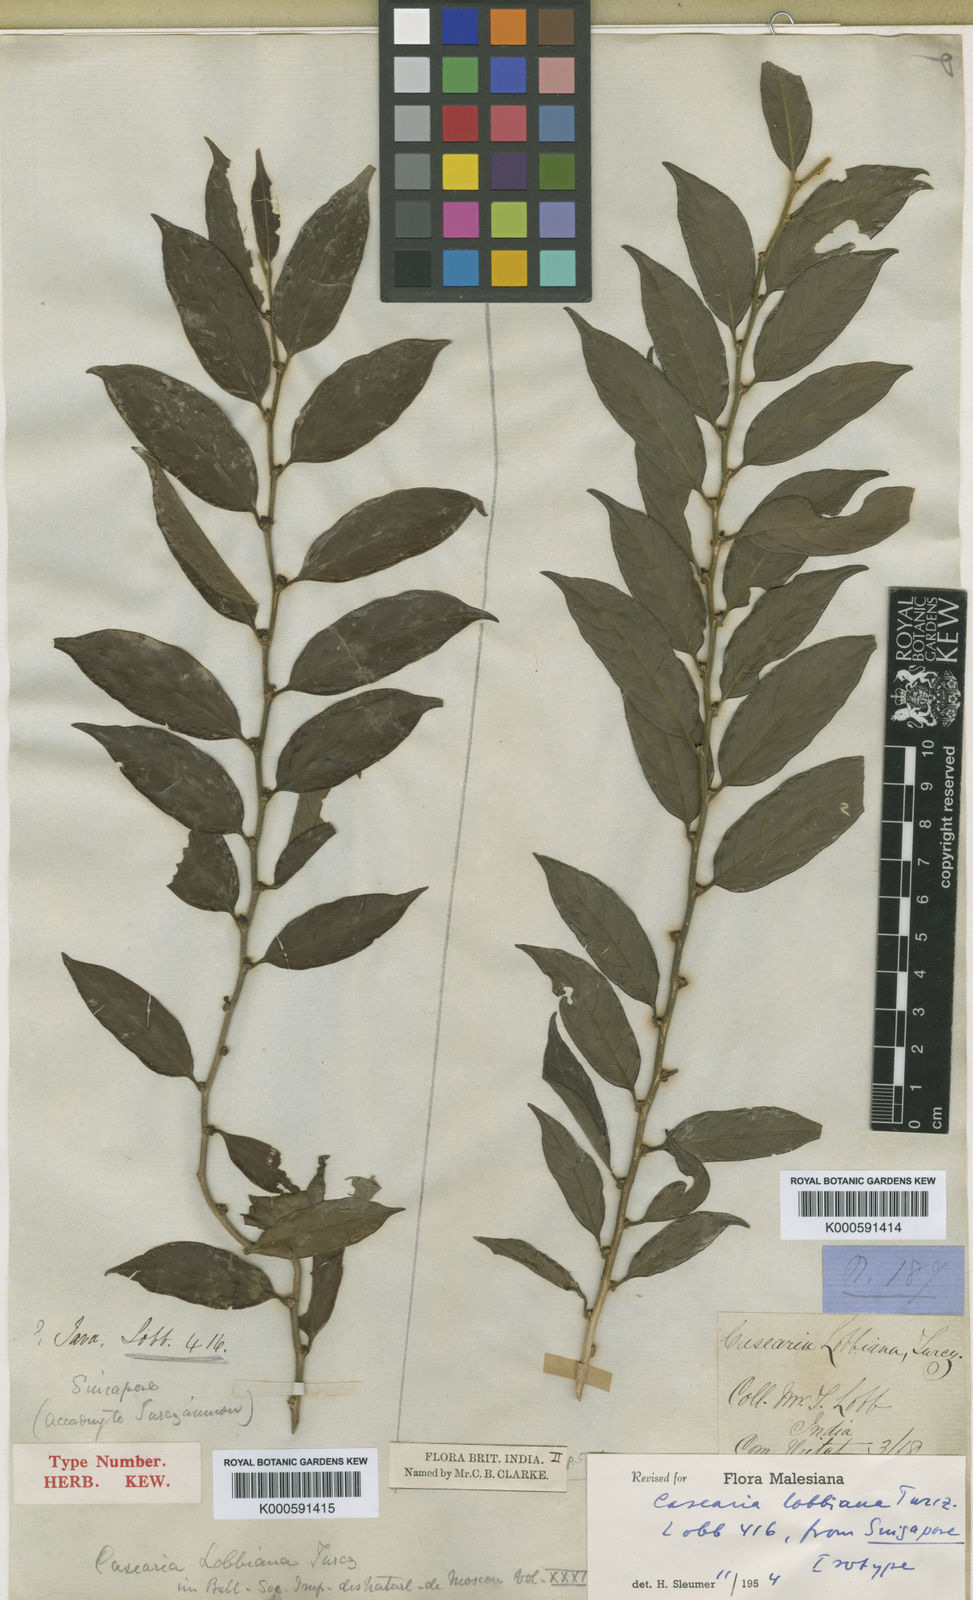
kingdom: Plantae
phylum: Tracheophyta
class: Magnoliopsida
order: Malpighiales
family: Salicaceae
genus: Casearia
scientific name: Casearia lobbiana
